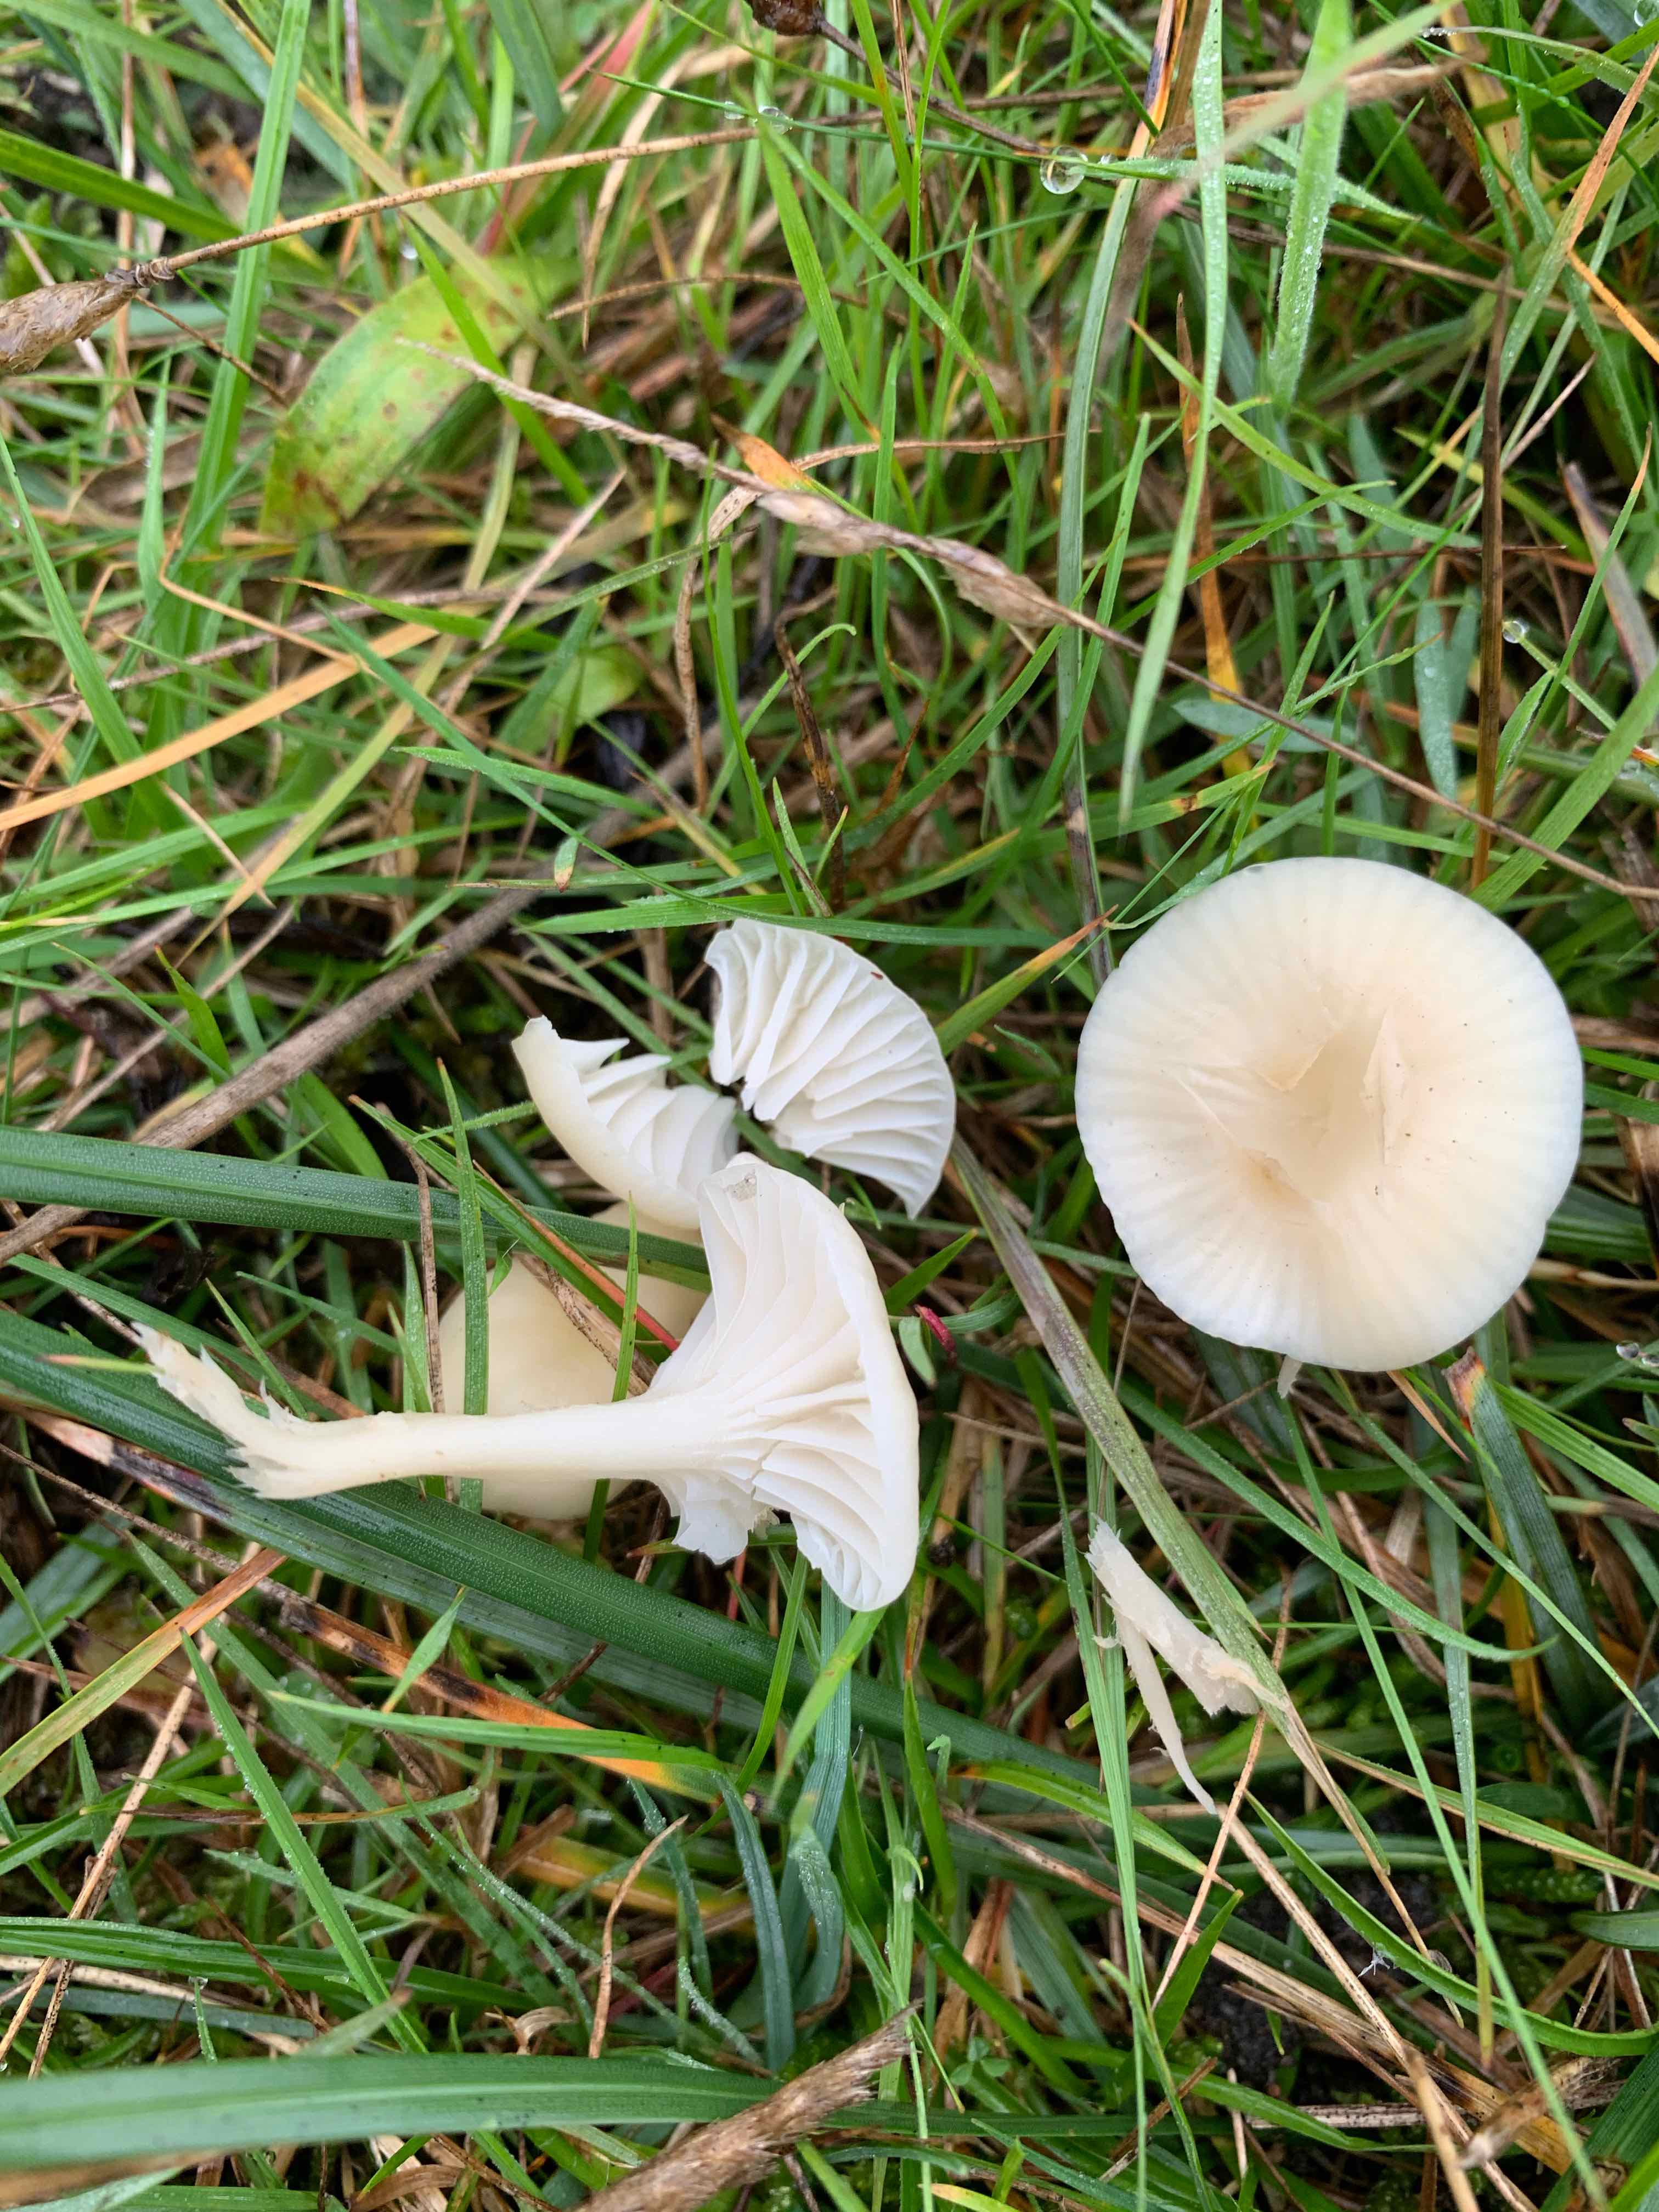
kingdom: Fungi
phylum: Basidiomycota
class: Agaricomycetes
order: Agaricales
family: Hygrophoraceae
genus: Cuphophyllus
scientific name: Cuphophyllus russocoriaceus
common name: ruslæder-vokshat
